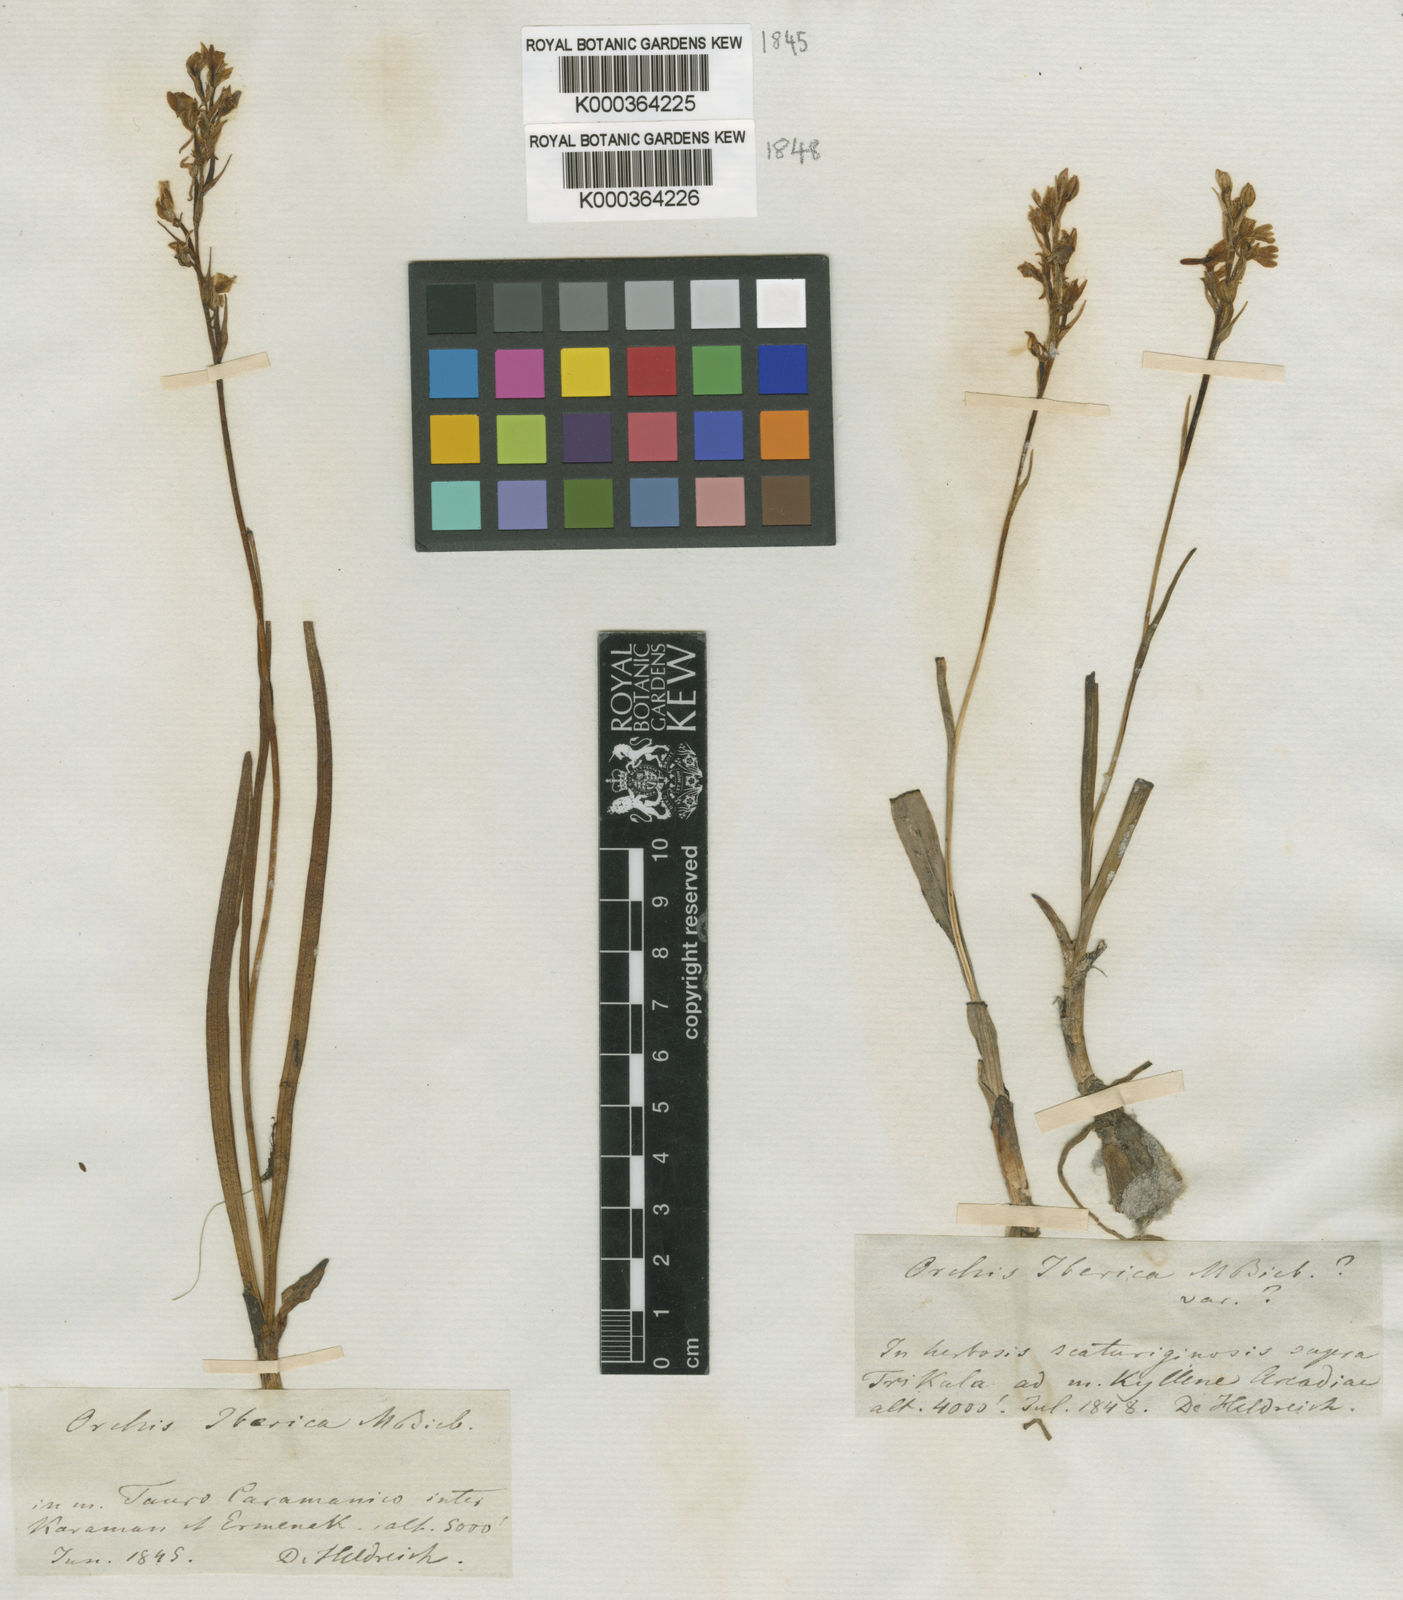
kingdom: Plantae
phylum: Tracheophyta
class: Liliopsida
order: Asparagales
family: Orchidaceae
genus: Dactylorhiza
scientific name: Dactylorhiza
